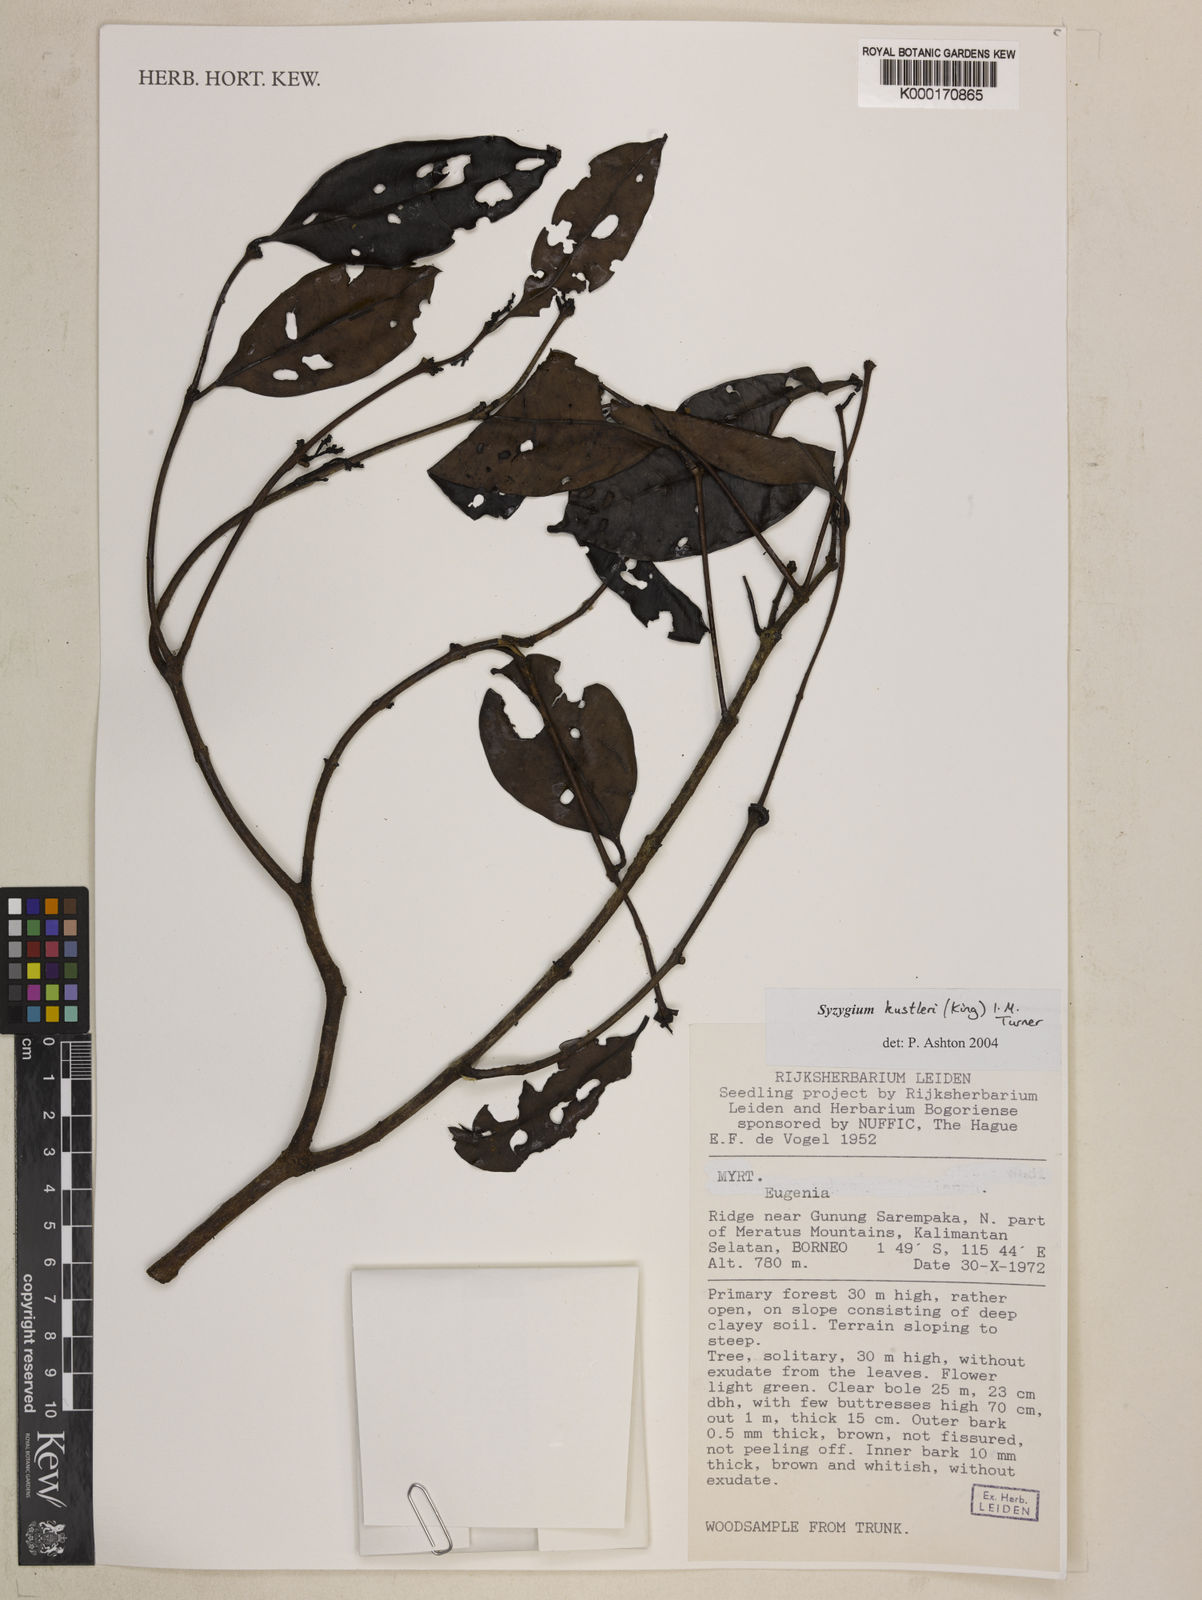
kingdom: Plantae
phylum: Tracheophyta
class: Magnoliopsida
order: Myrtales
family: Myrtaceae
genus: Syzygium
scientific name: Syzygium
